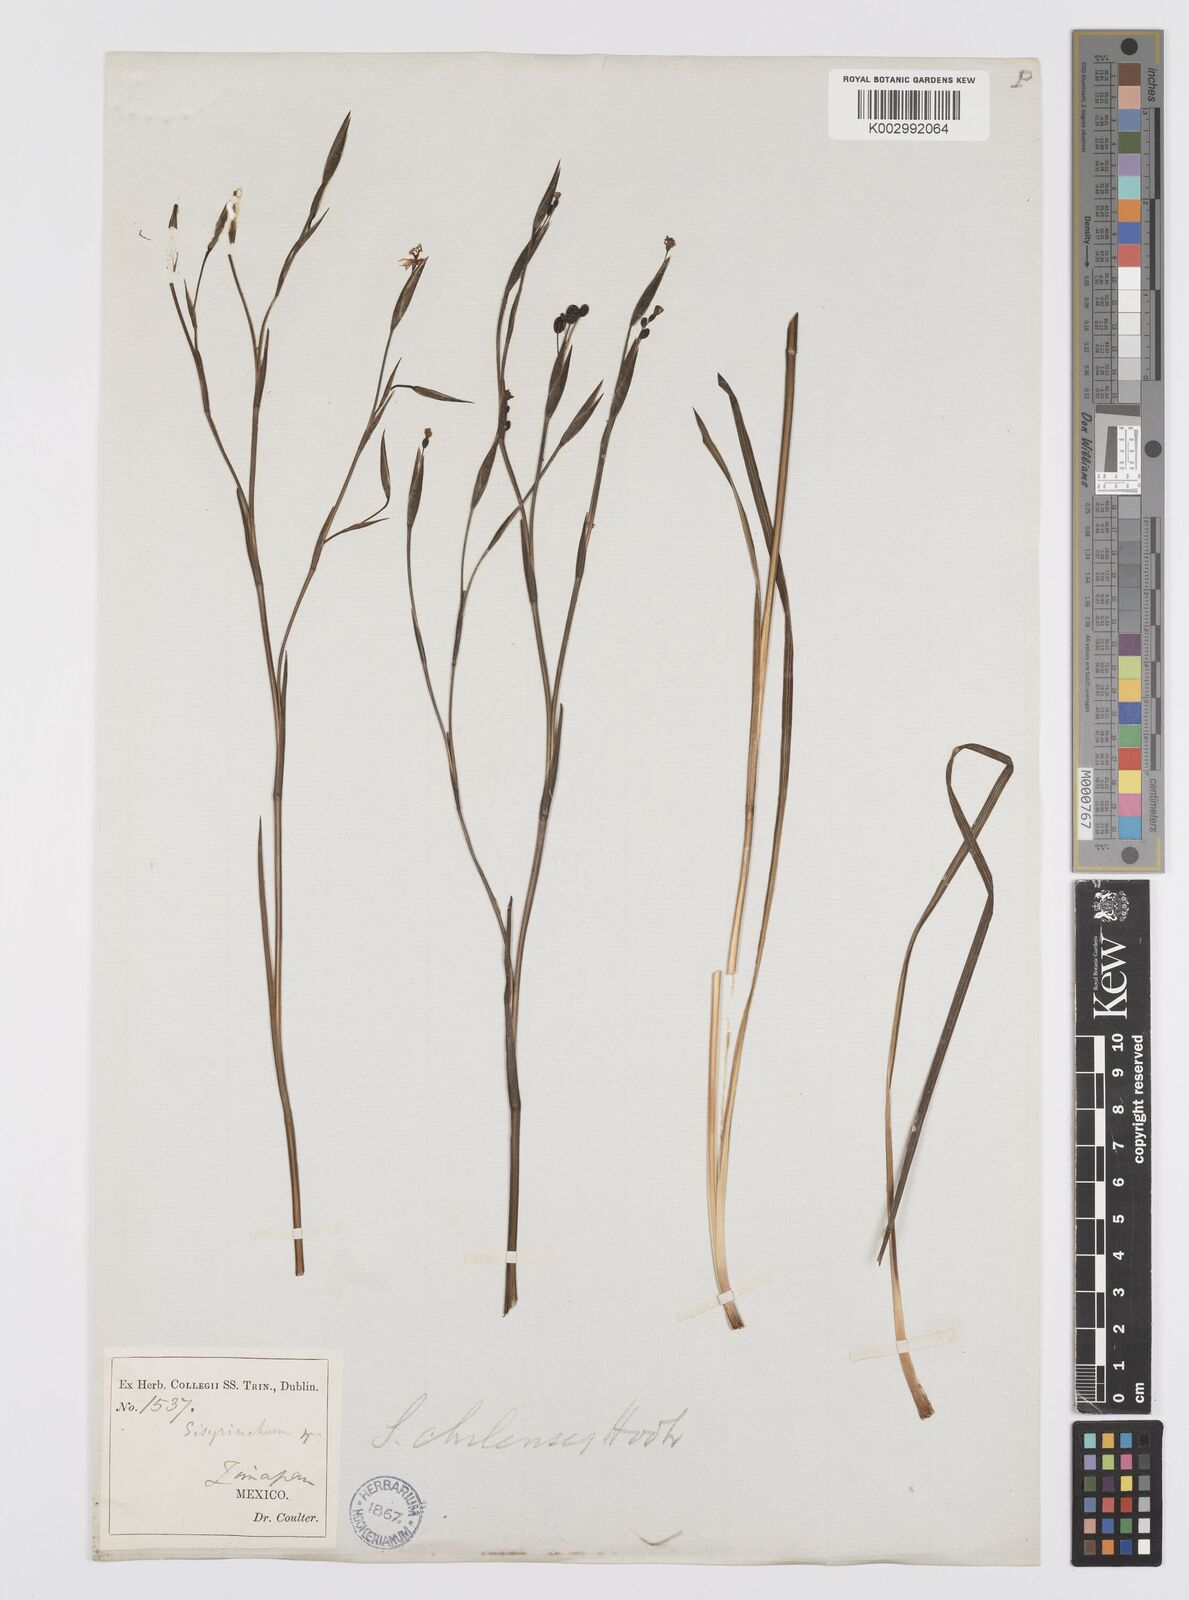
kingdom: Plantae
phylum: Tracheophyta
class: Liliopsida
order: Asparagales
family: Iridaceae
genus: Sisyrinchium
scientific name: Sisyrinchium chilense
